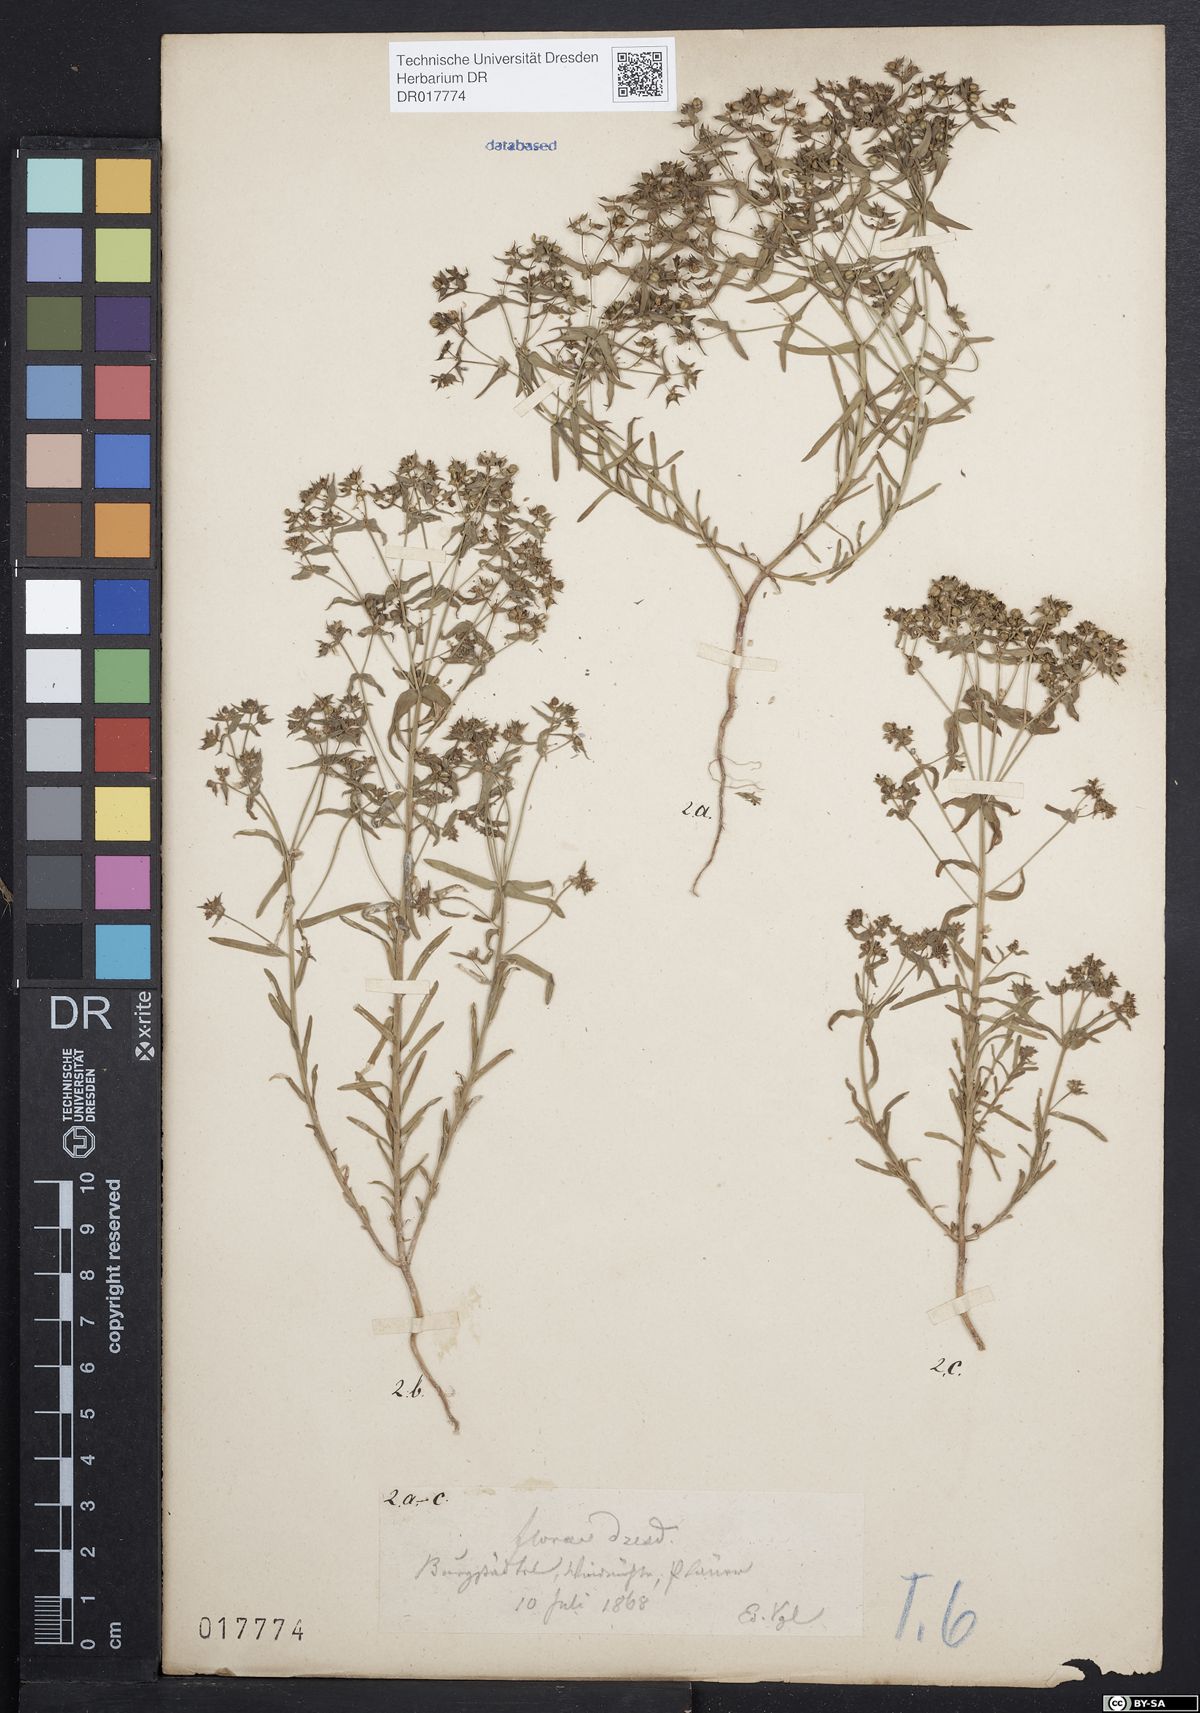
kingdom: Plantae
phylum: Tracheophyta
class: Magnoliopsida
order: Malpighiales
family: Euphorbiaceae
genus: Euphorbia
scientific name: Euphorbia exigua
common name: Dwarf spurge
